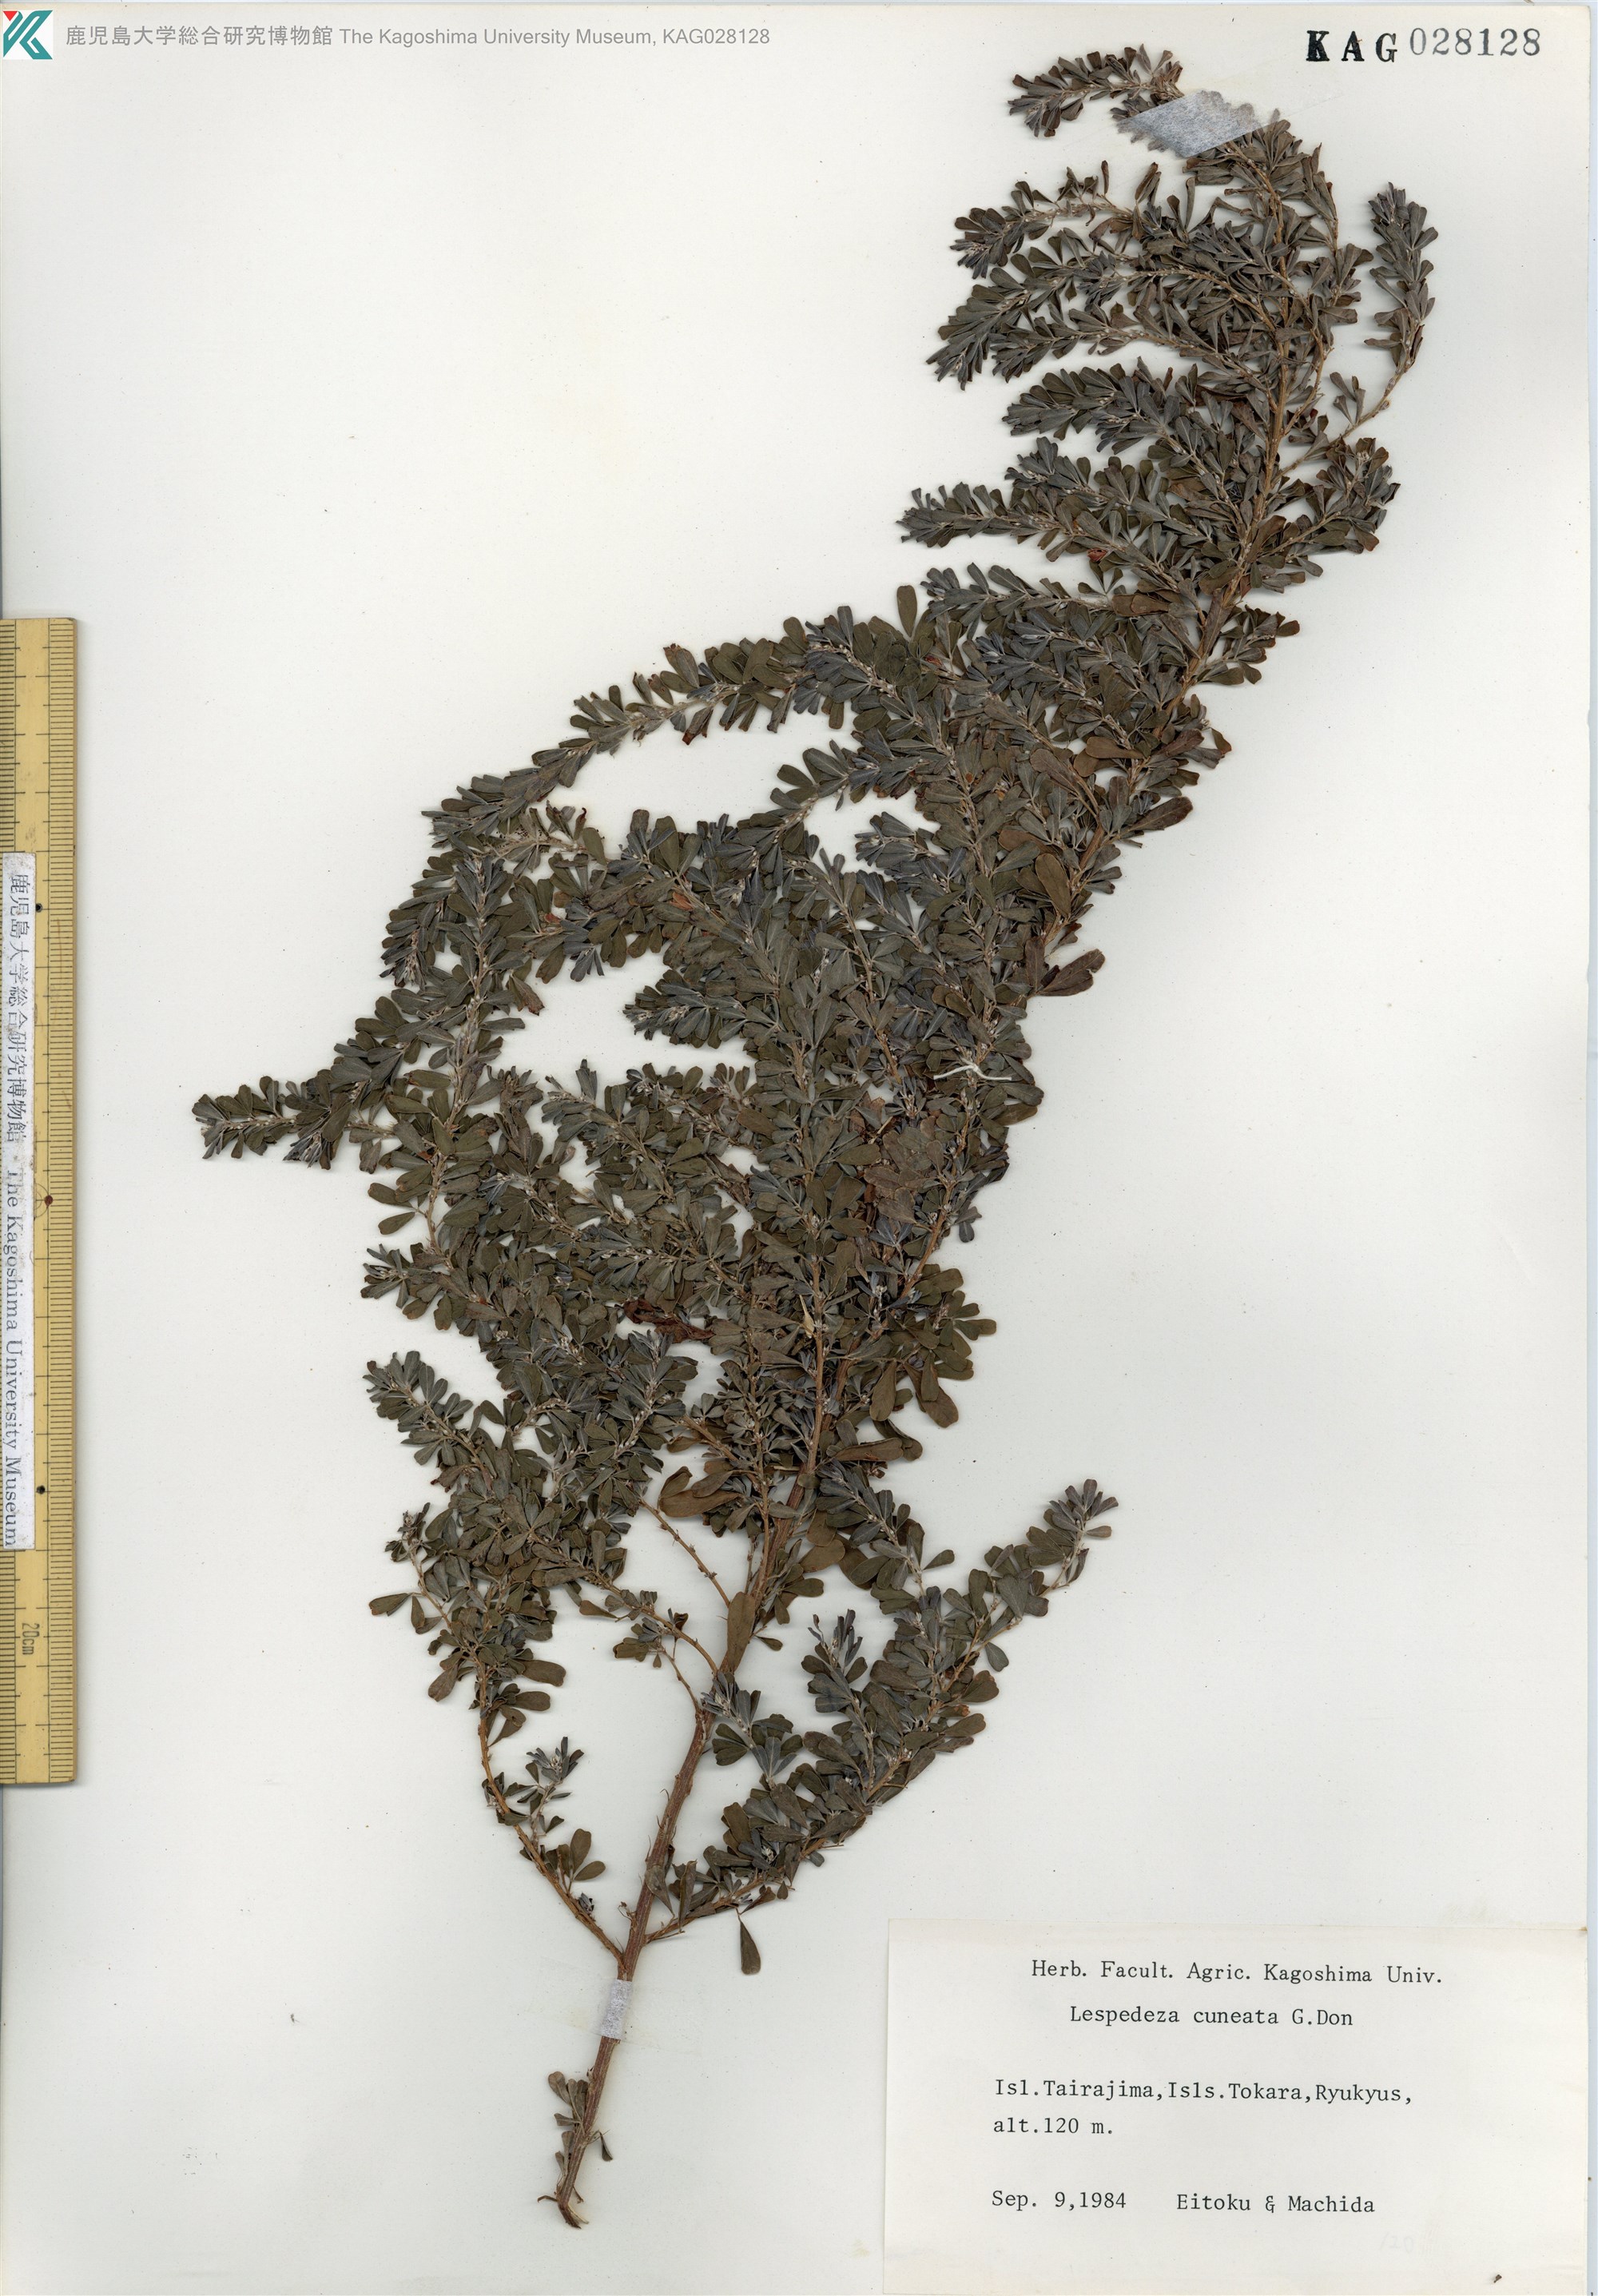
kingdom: Plantae
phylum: Tracheophyta
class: Magnoliopsida
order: Fabales
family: Fabaceae
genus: Lespedeza
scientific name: Lespedeza cuneata
